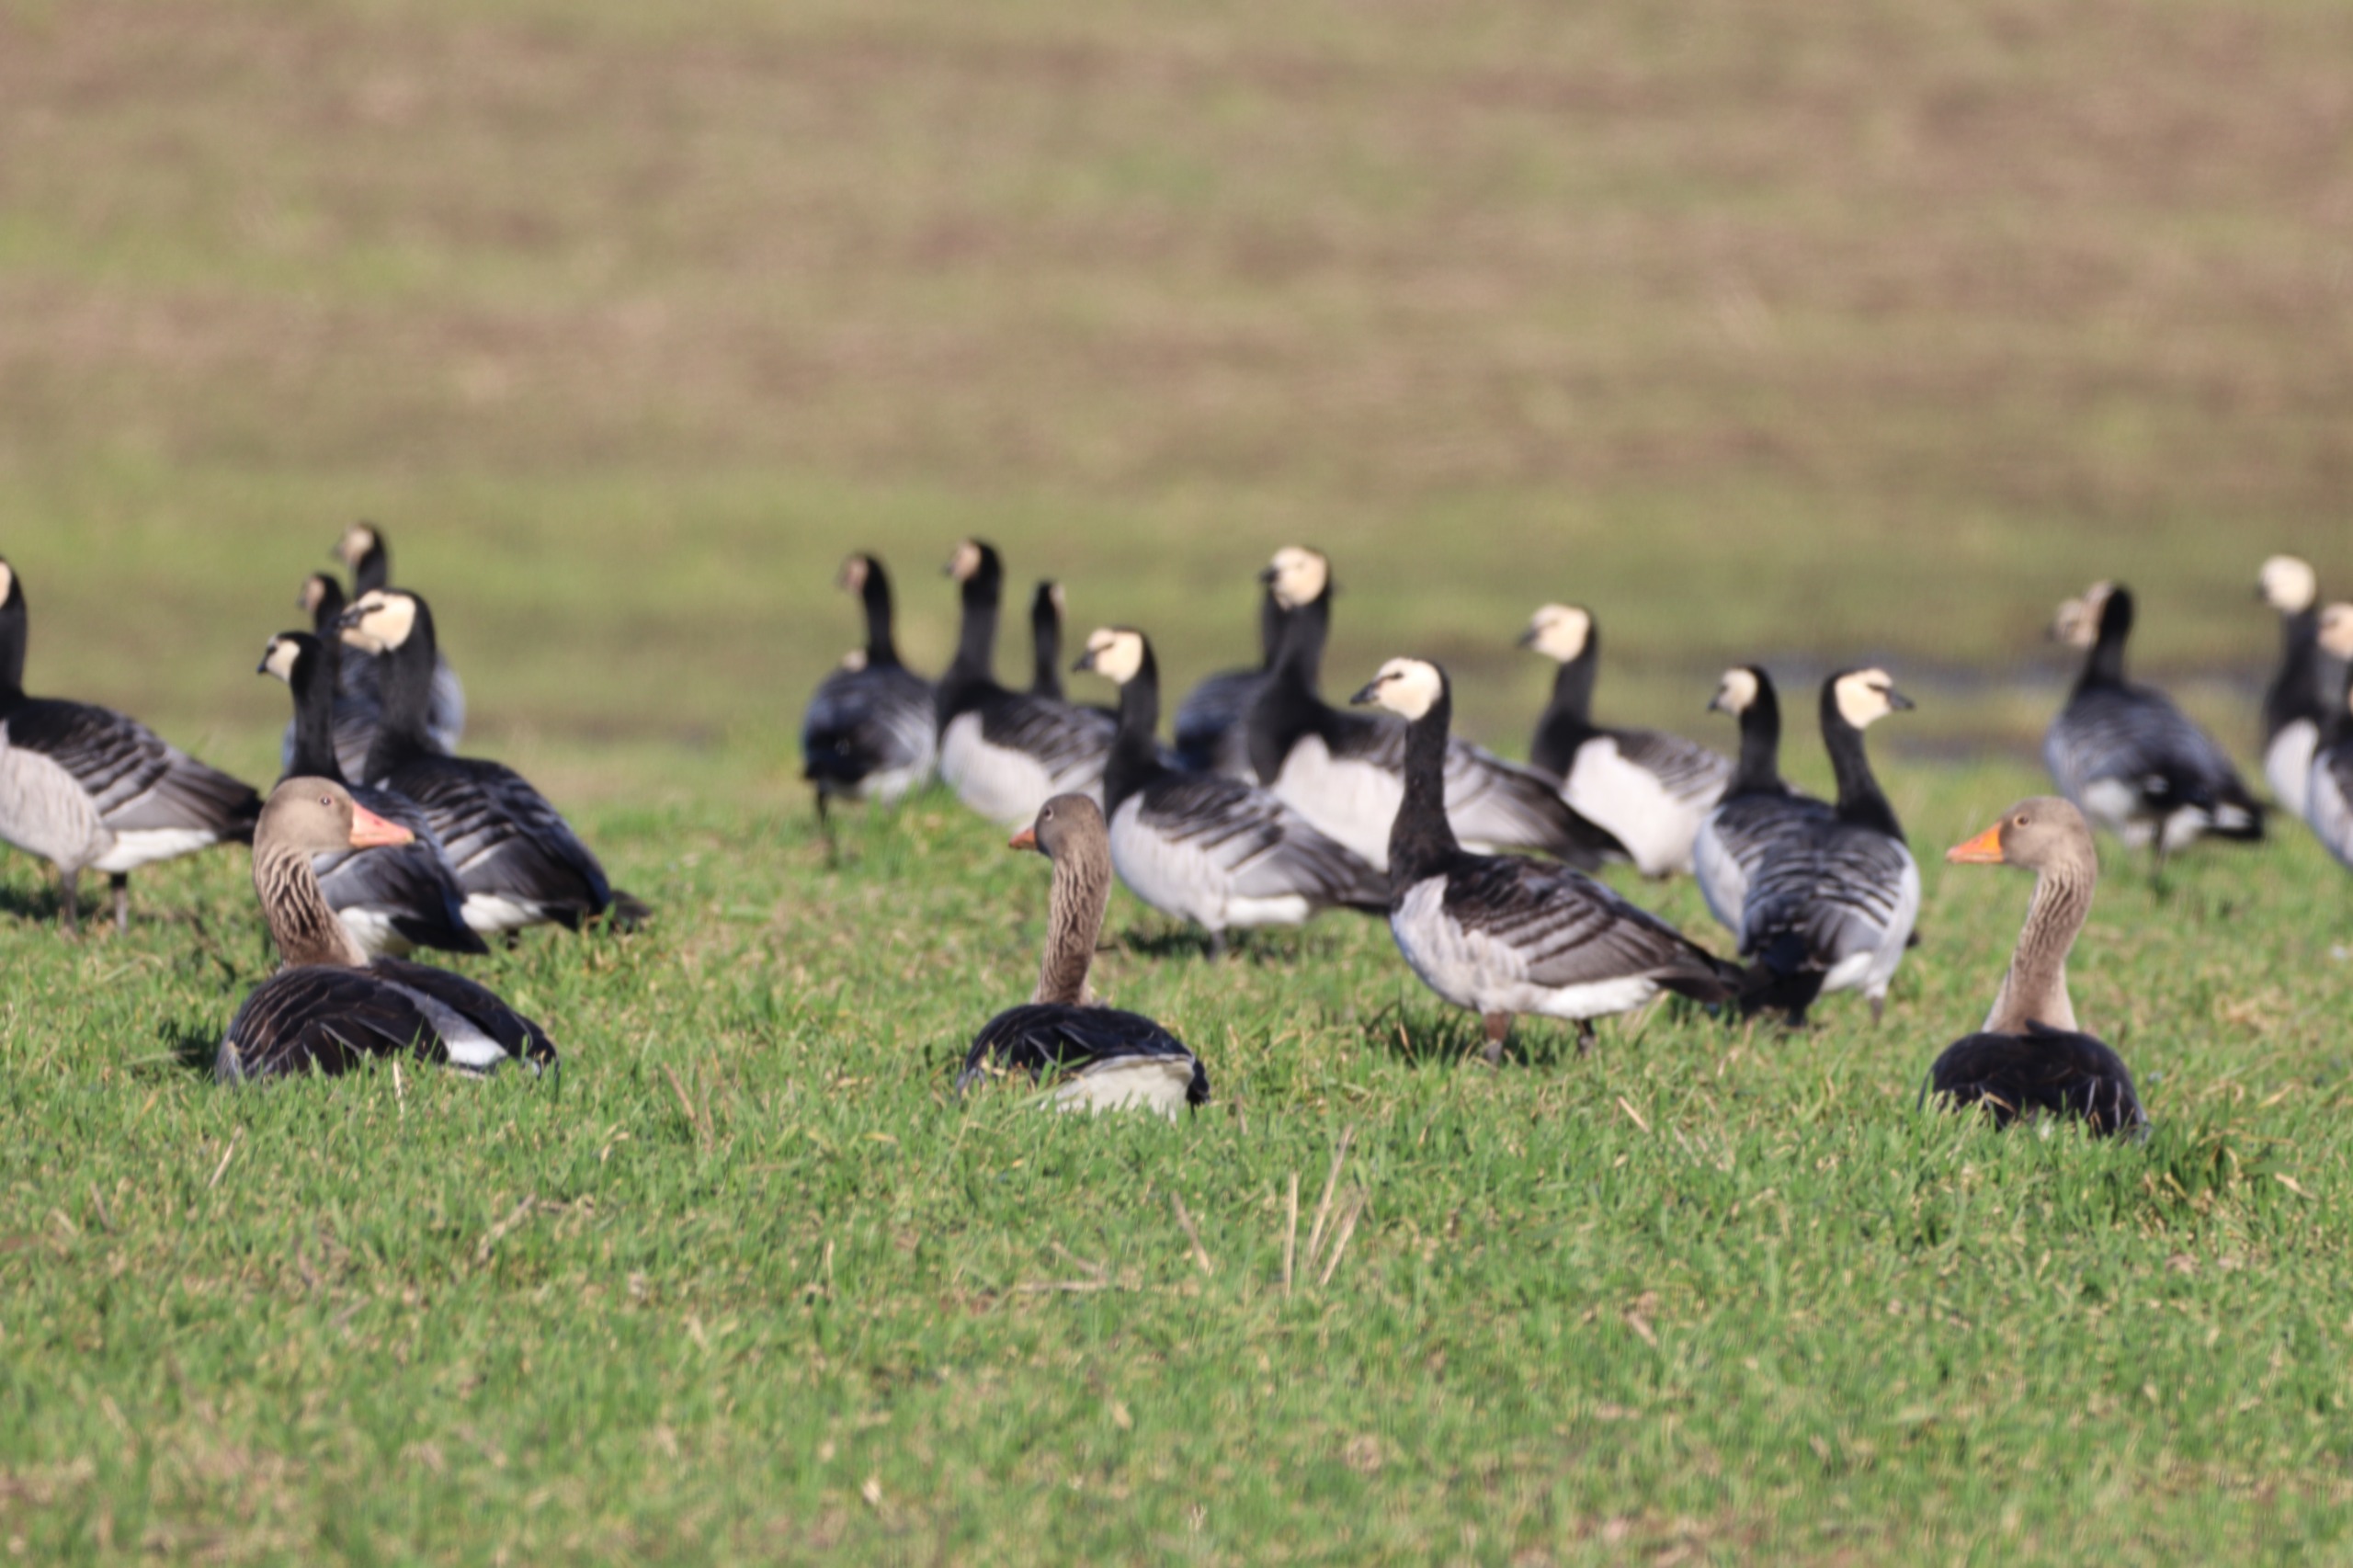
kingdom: Animalia
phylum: Chordata
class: Aves
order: Anseriformes
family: Anatidae
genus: Branta
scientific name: Branta leucopsis
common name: Bramgås
